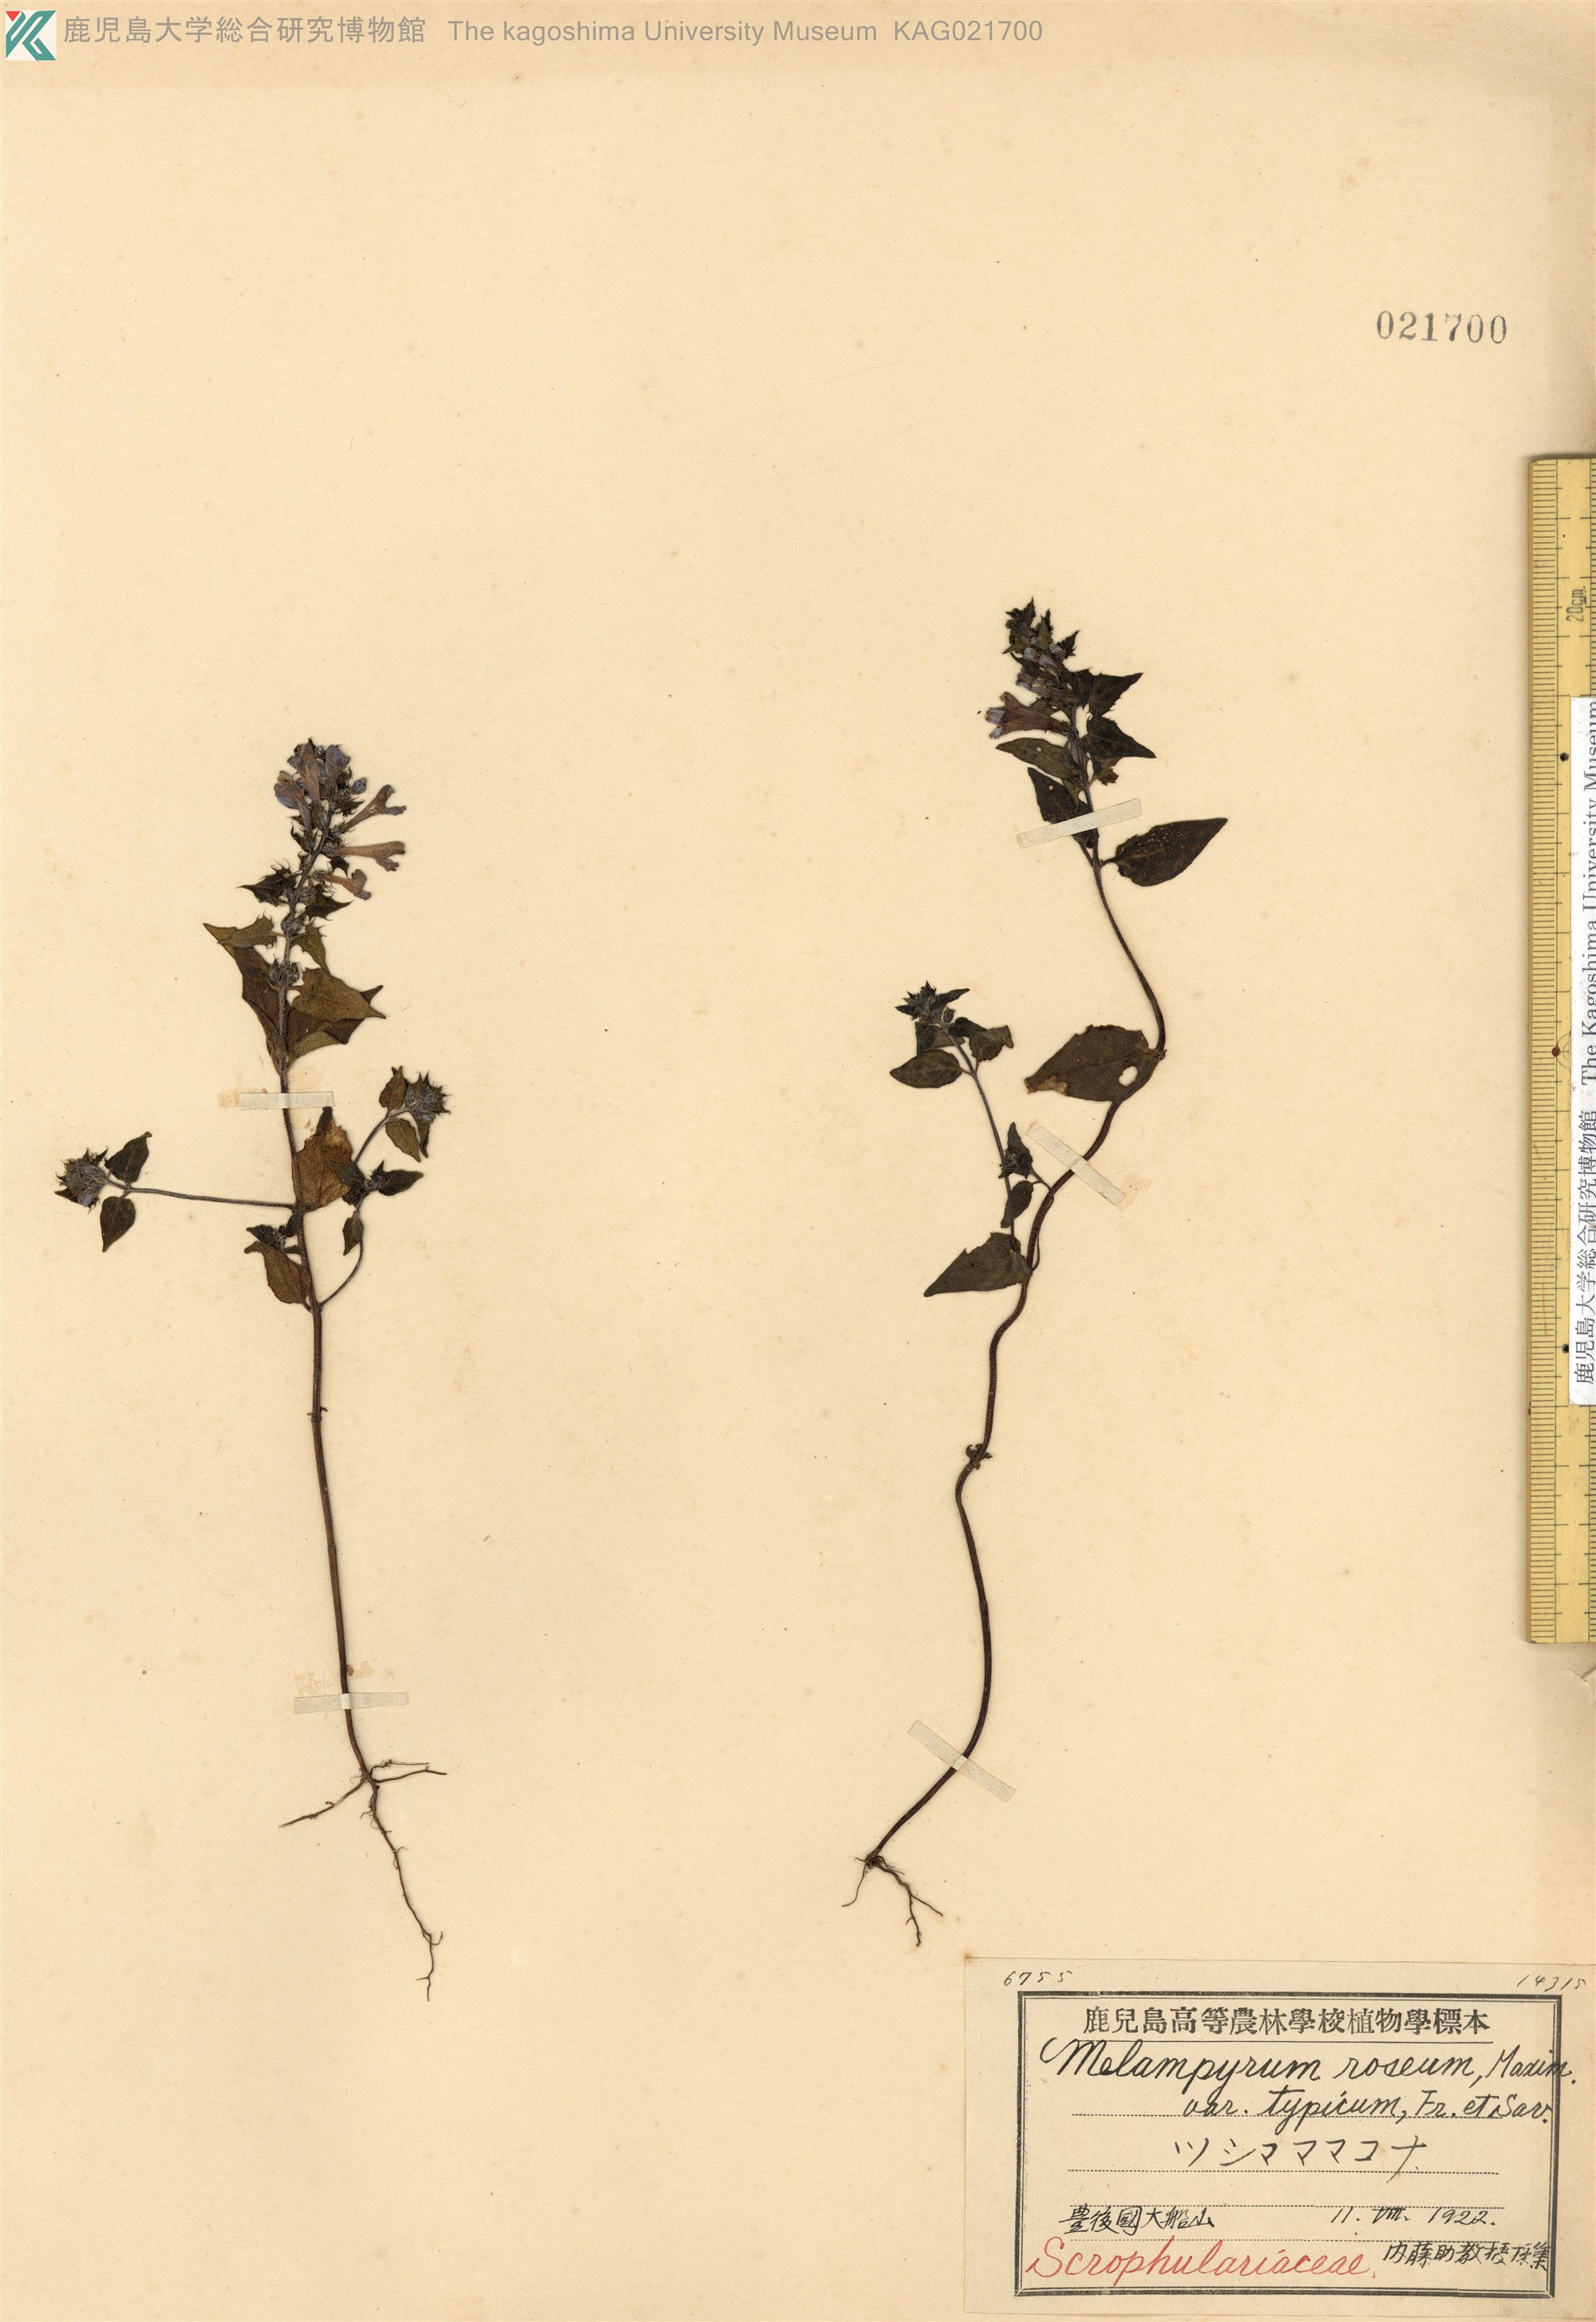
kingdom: Plantae
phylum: Tracheophyta
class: Magnoliopsida
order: Lamiales
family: Orobanchaceae
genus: Melampyrum
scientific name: Melampyrum roseum
